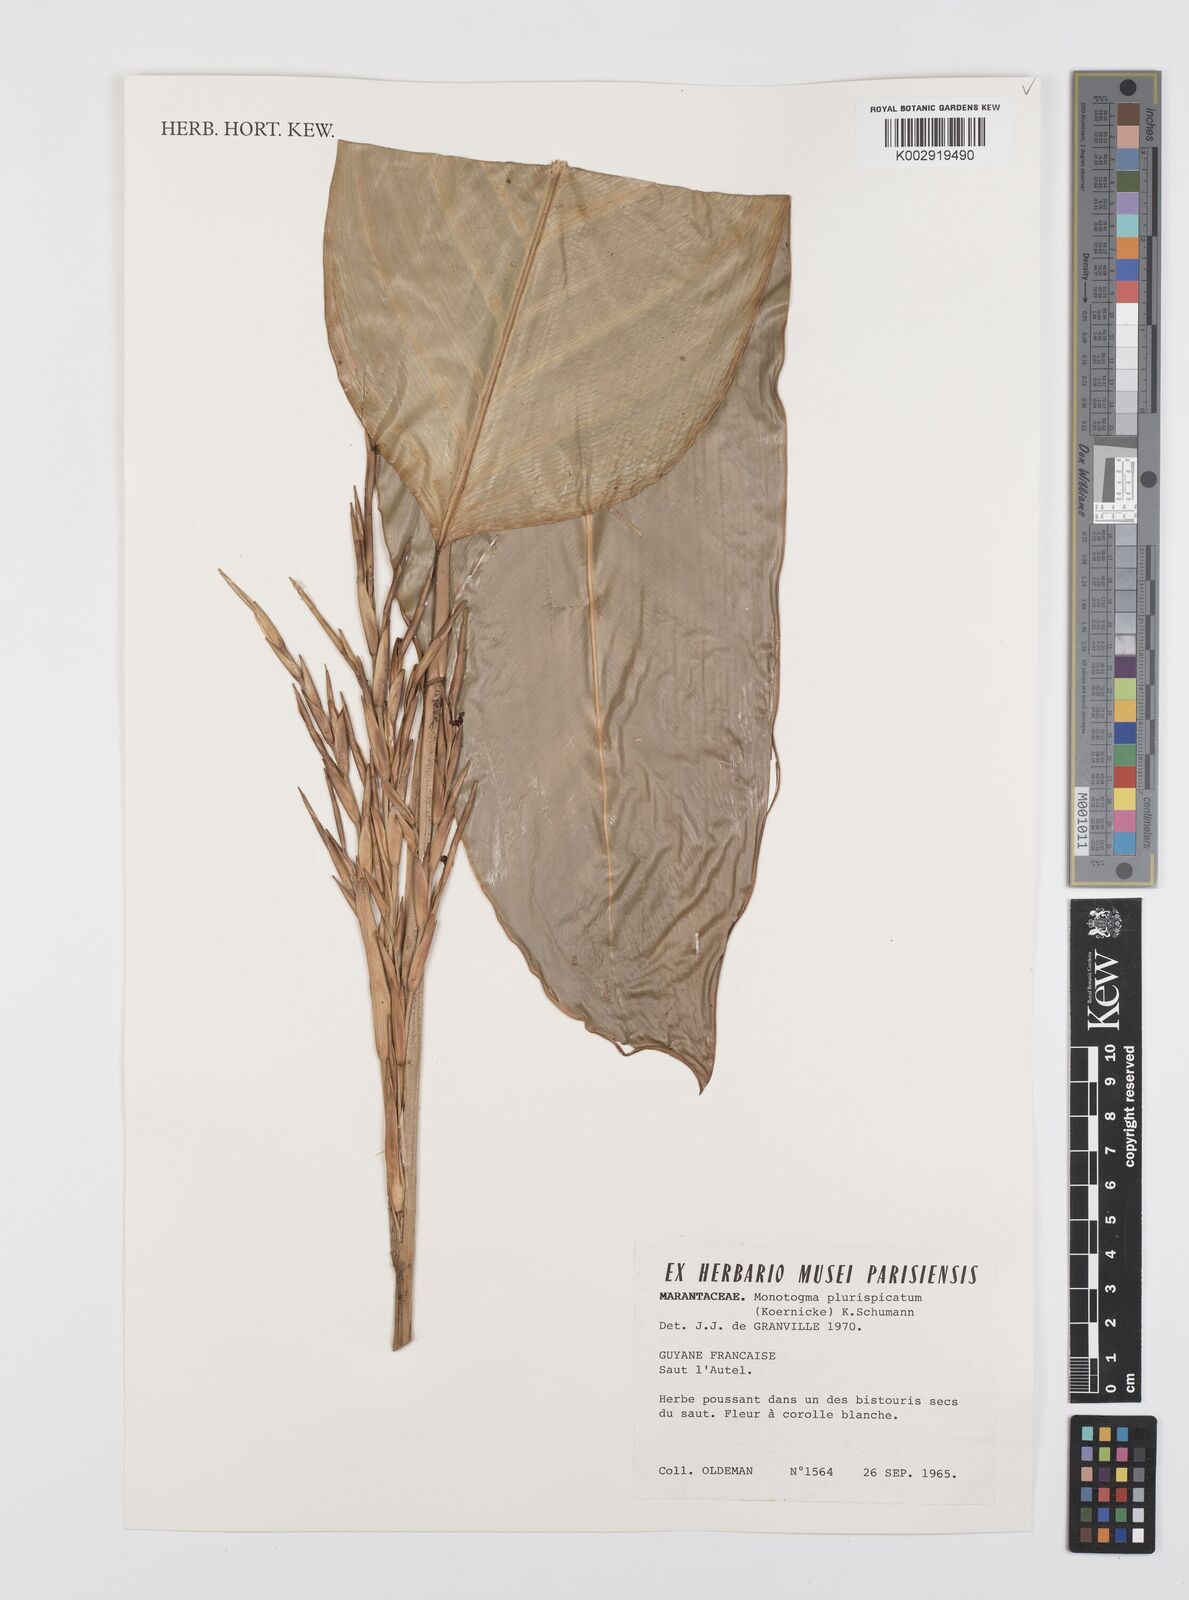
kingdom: Plantae
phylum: Tracheophyta
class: Liliopsida
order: Zingiberales
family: Marantaceae
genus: Monotagma
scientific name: Monotagma plurispicatum
